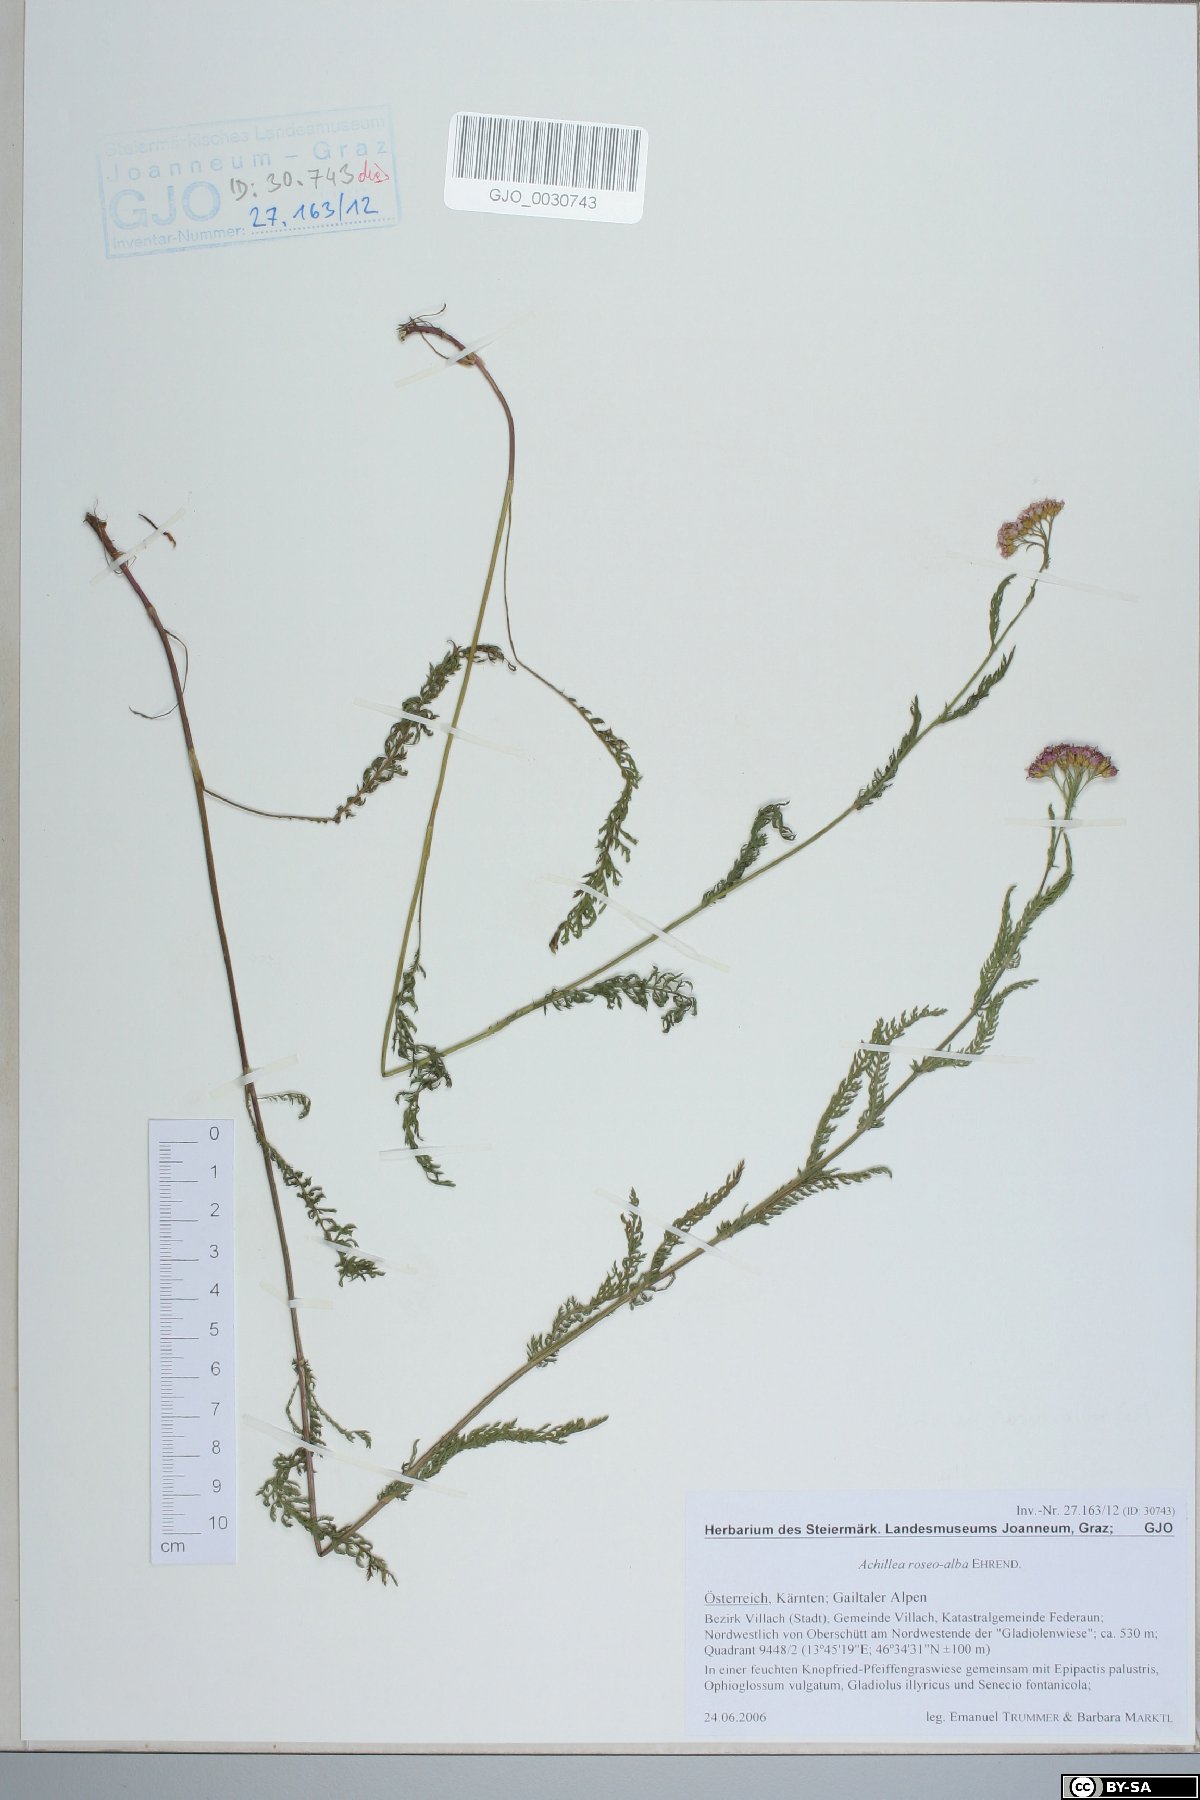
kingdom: Plantae
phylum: Tracheophyta
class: Magnoliopsida
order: Asterales
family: Asteraceae
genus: Achillea
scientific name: Achillea roseoalba
